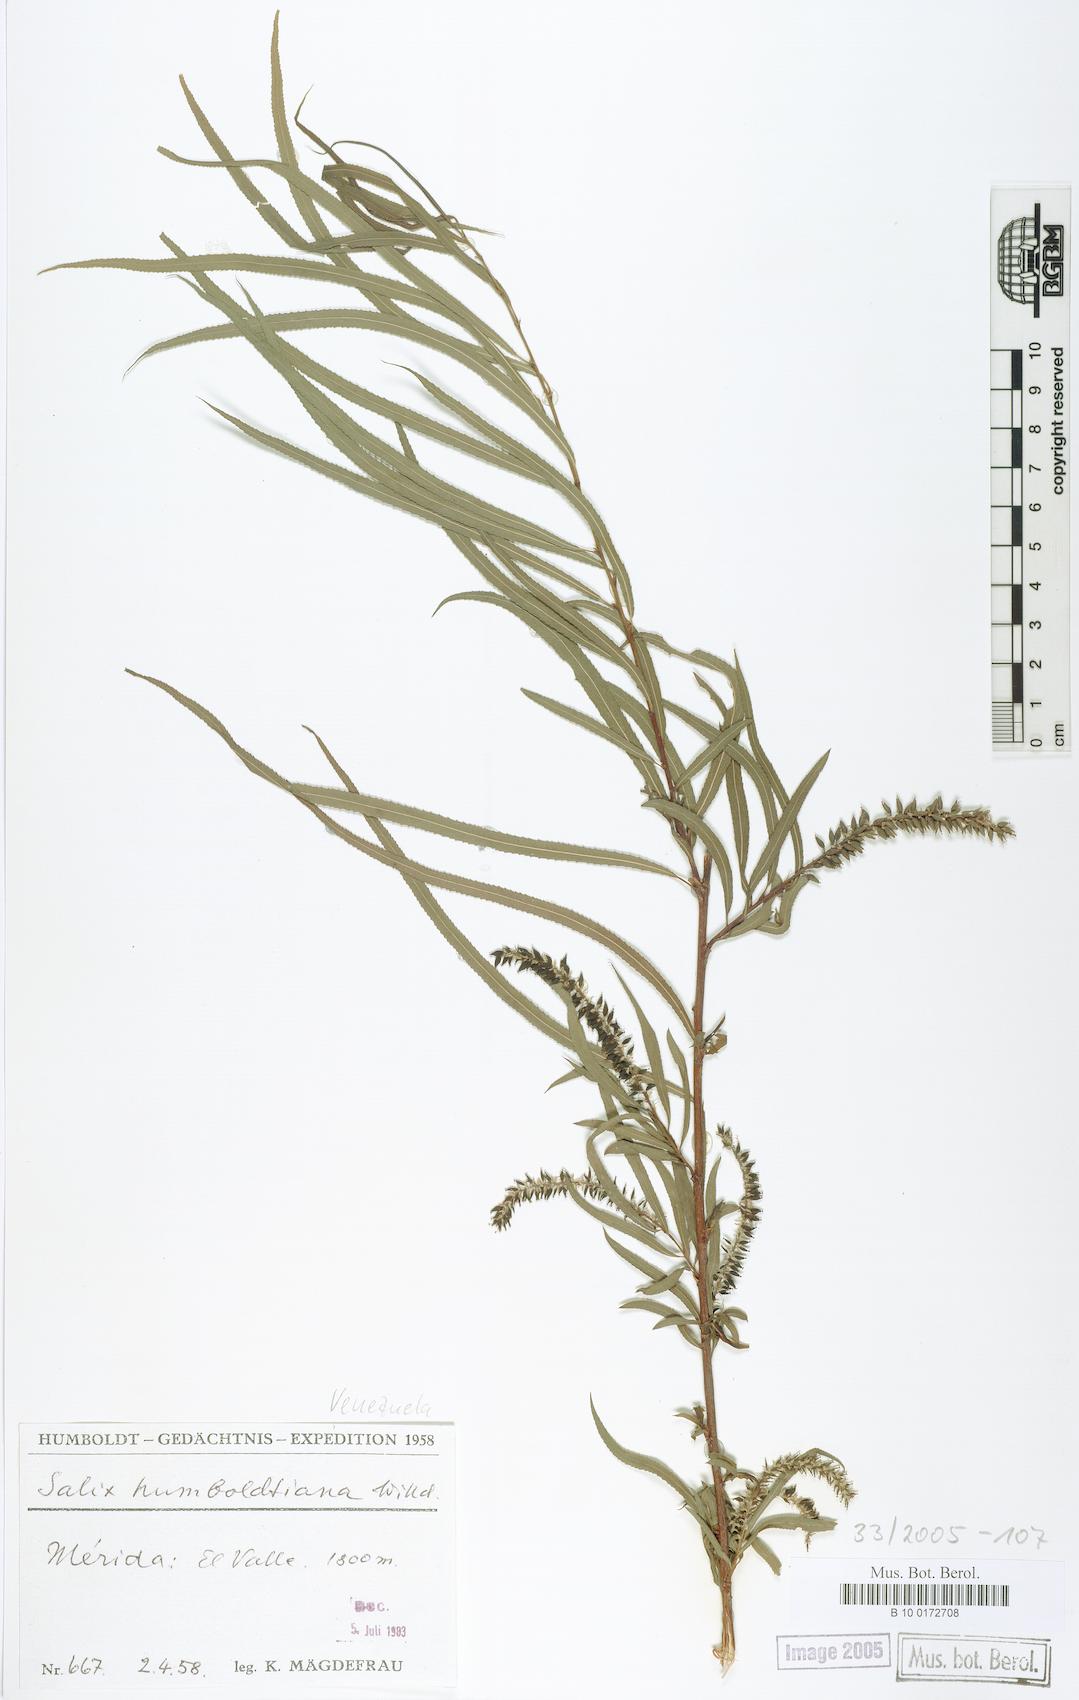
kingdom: Plantae
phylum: Tracheophyta
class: Magnoliopsida
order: Malpighiales
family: Salicaceae
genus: Salix
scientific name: Salix humboldtiana
